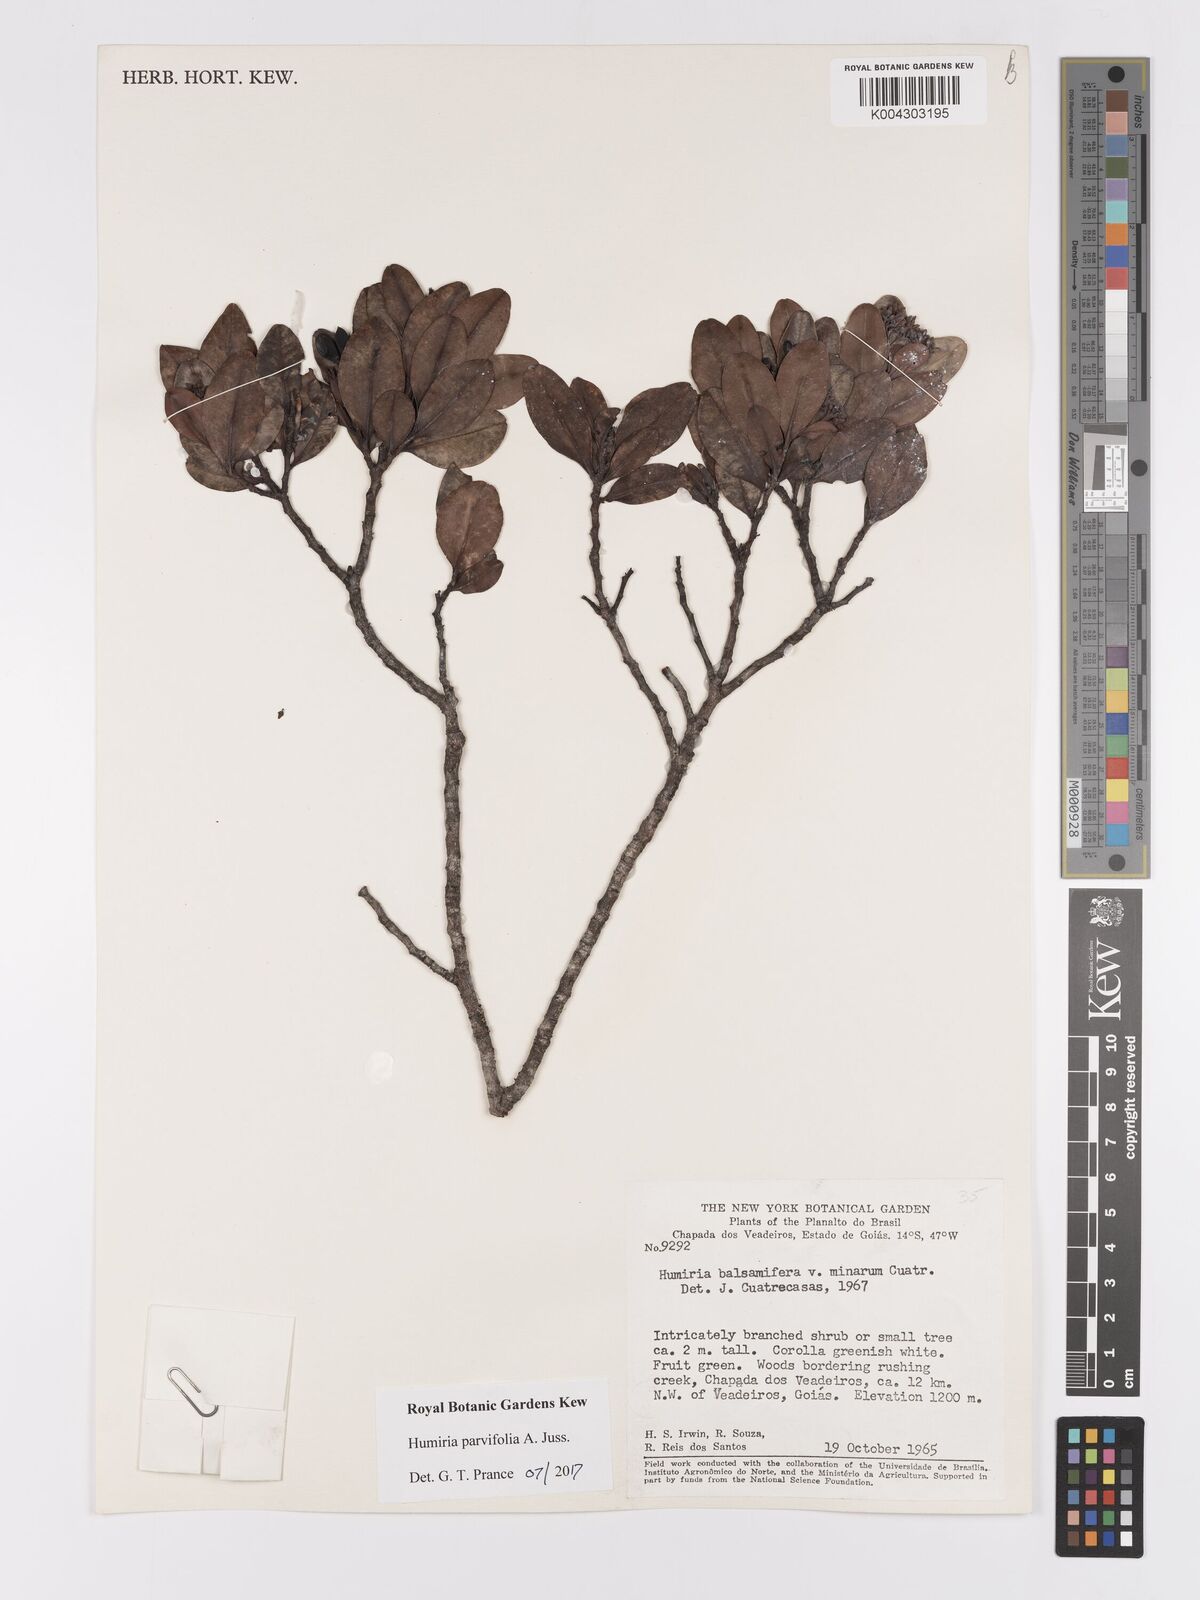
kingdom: Plantae
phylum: Tracheophyta
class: Magnoliopsida
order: Malpighiales
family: Humiriaceae
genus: Humiria
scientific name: Humiria parvifolia
